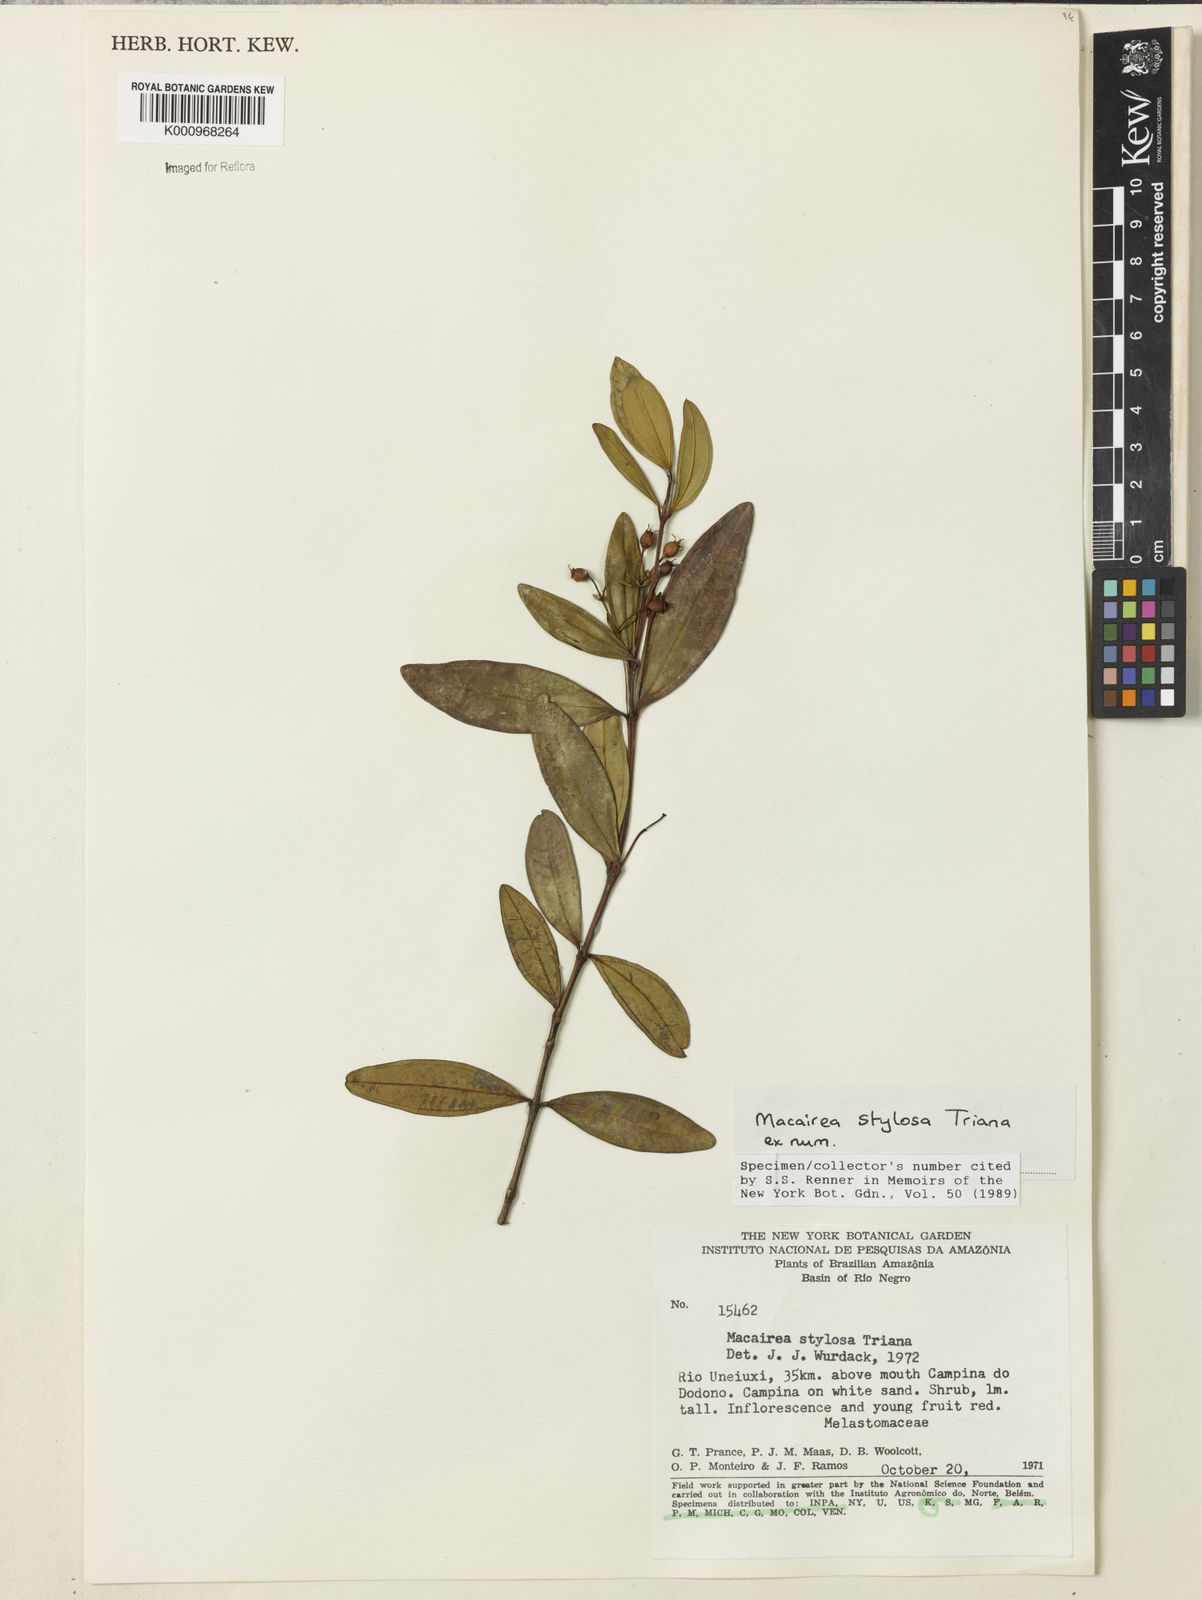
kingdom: Plantae
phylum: Tracheophyta
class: Magnoliopsida
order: Myrtales
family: Melastomataceae
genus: Macairea
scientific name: Macairea stylosa
